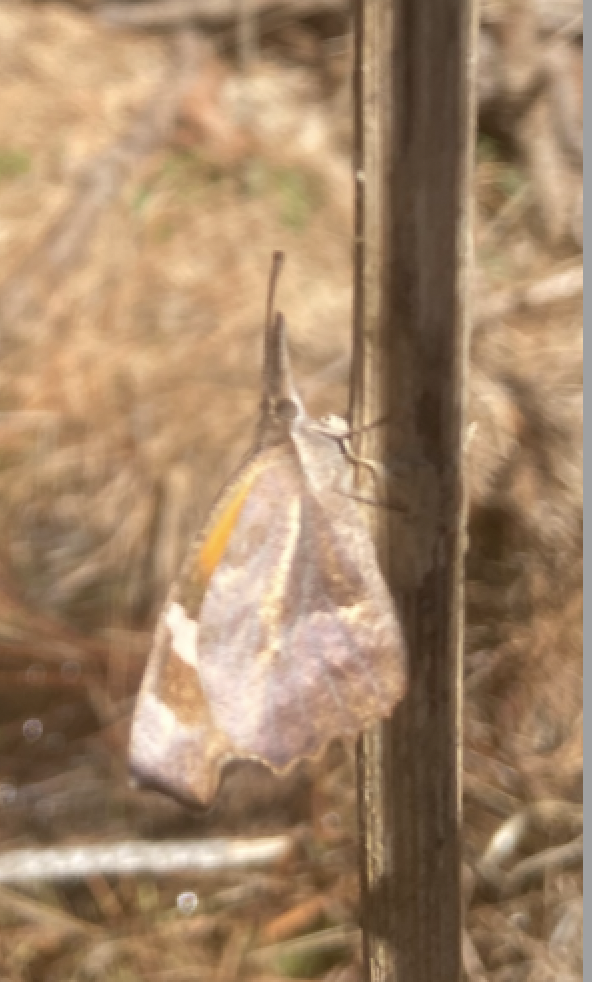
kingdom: Animalia
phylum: Arthropoda
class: Insecta
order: Lepidoptera
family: Nymphalidae
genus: Libytheana
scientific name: Libytheana carinenta
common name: American Snout
